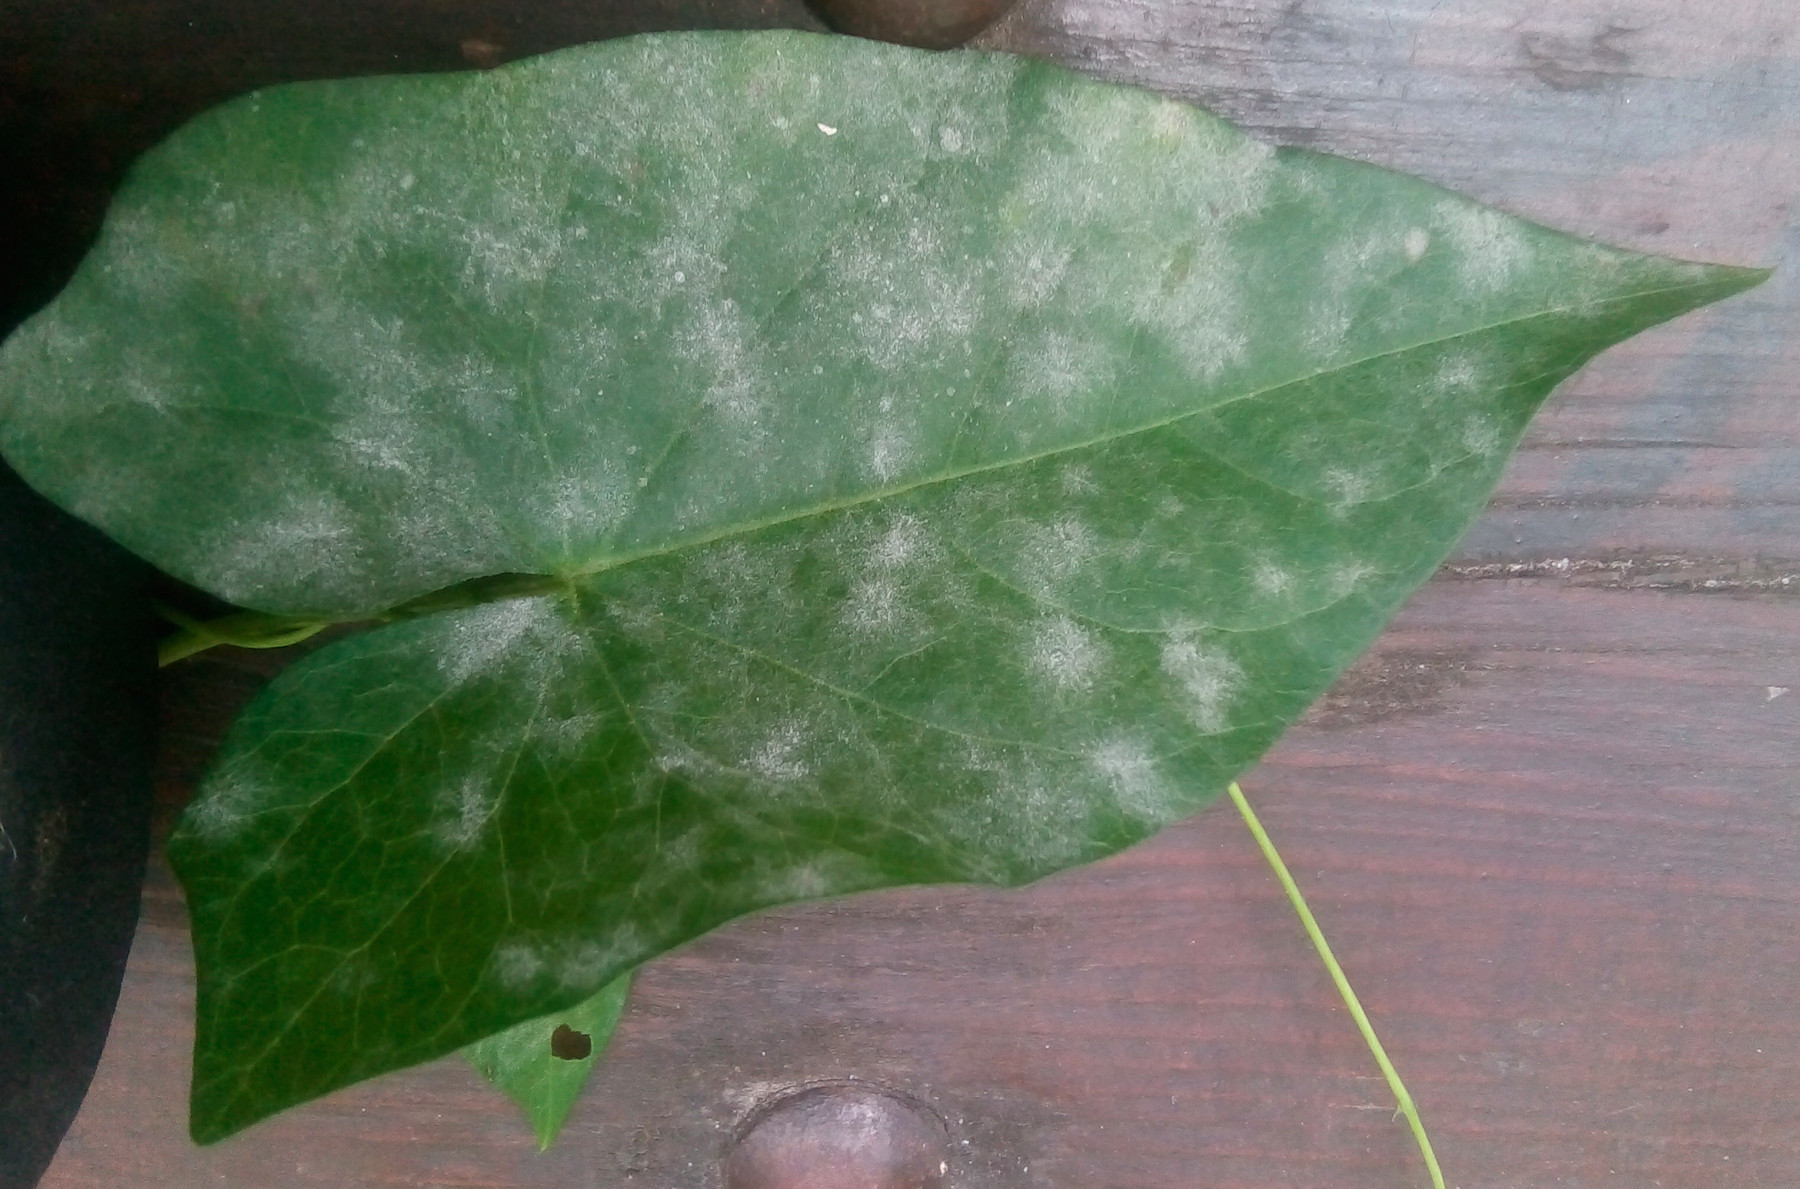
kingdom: Fungi
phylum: Ascomycota
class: Leotiomycetes
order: Helotiales
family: Erysiphaceae
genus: Erysiphe
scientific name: Erysiphe convolvuli
